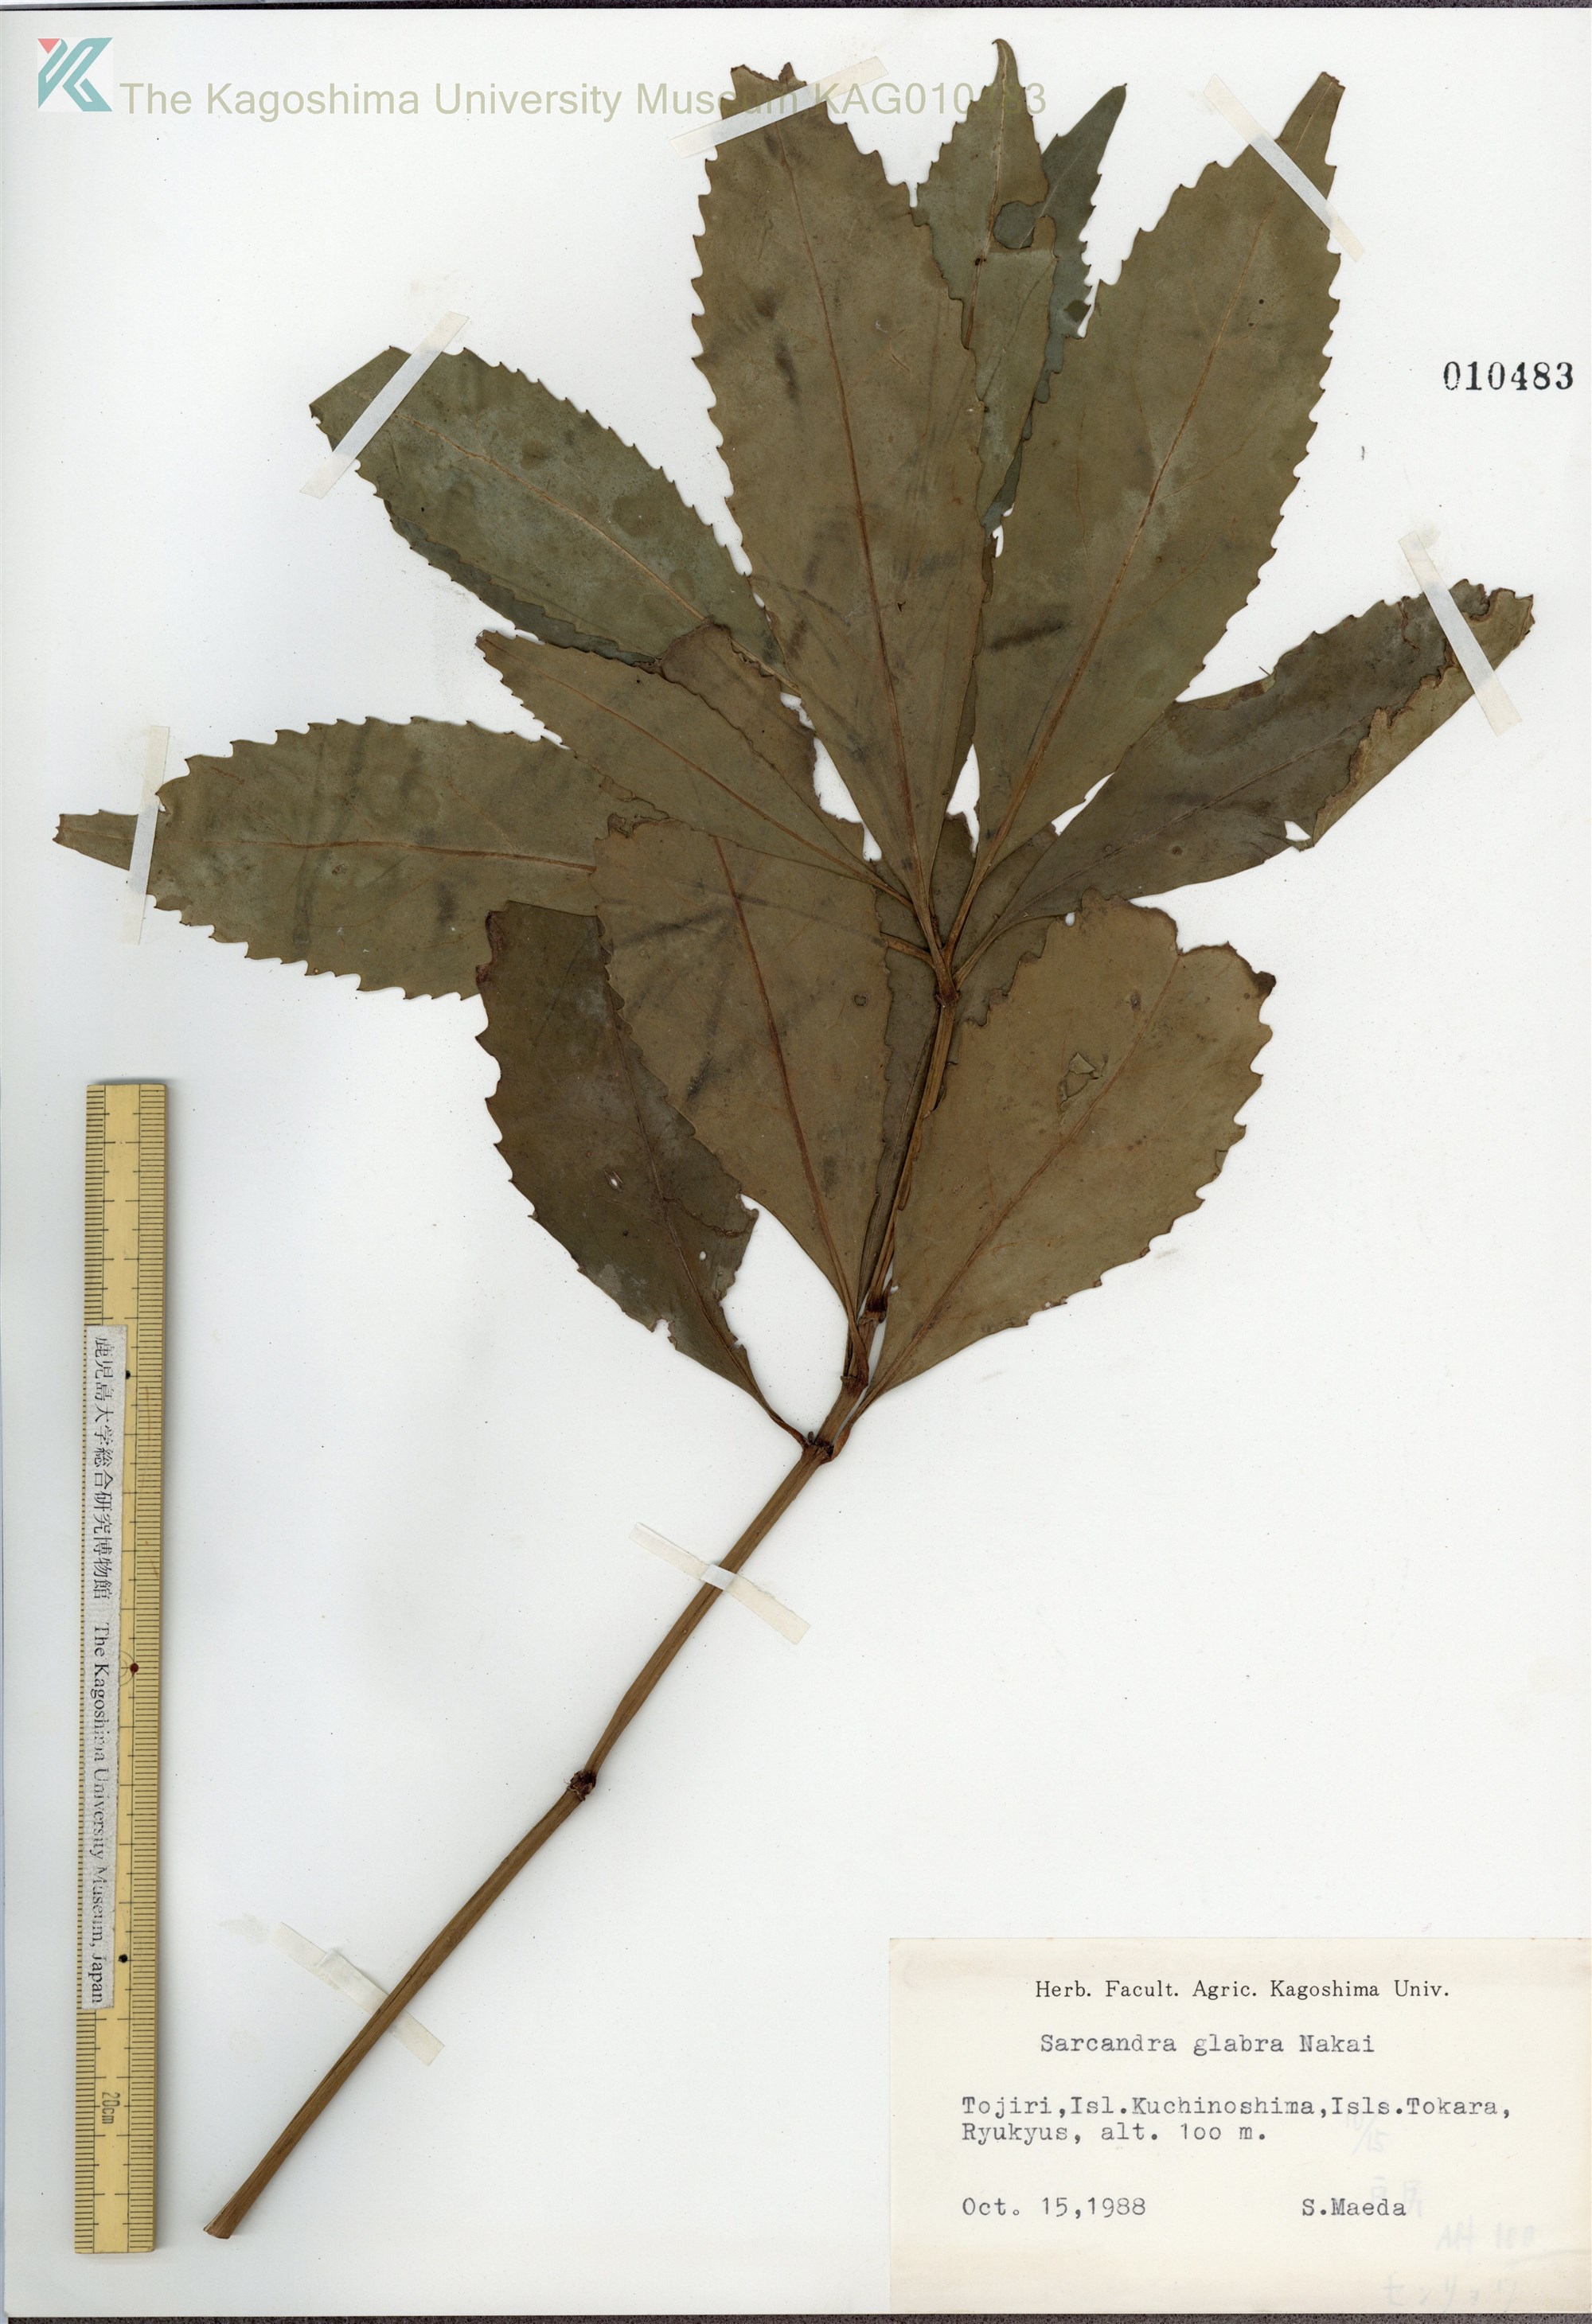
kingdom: Plantae
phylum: Tracheophyta
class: Magnoliopsida
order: Chloranthales
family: Chloranthaceae
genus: Sarcandra
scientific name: Sarcandra glabra
